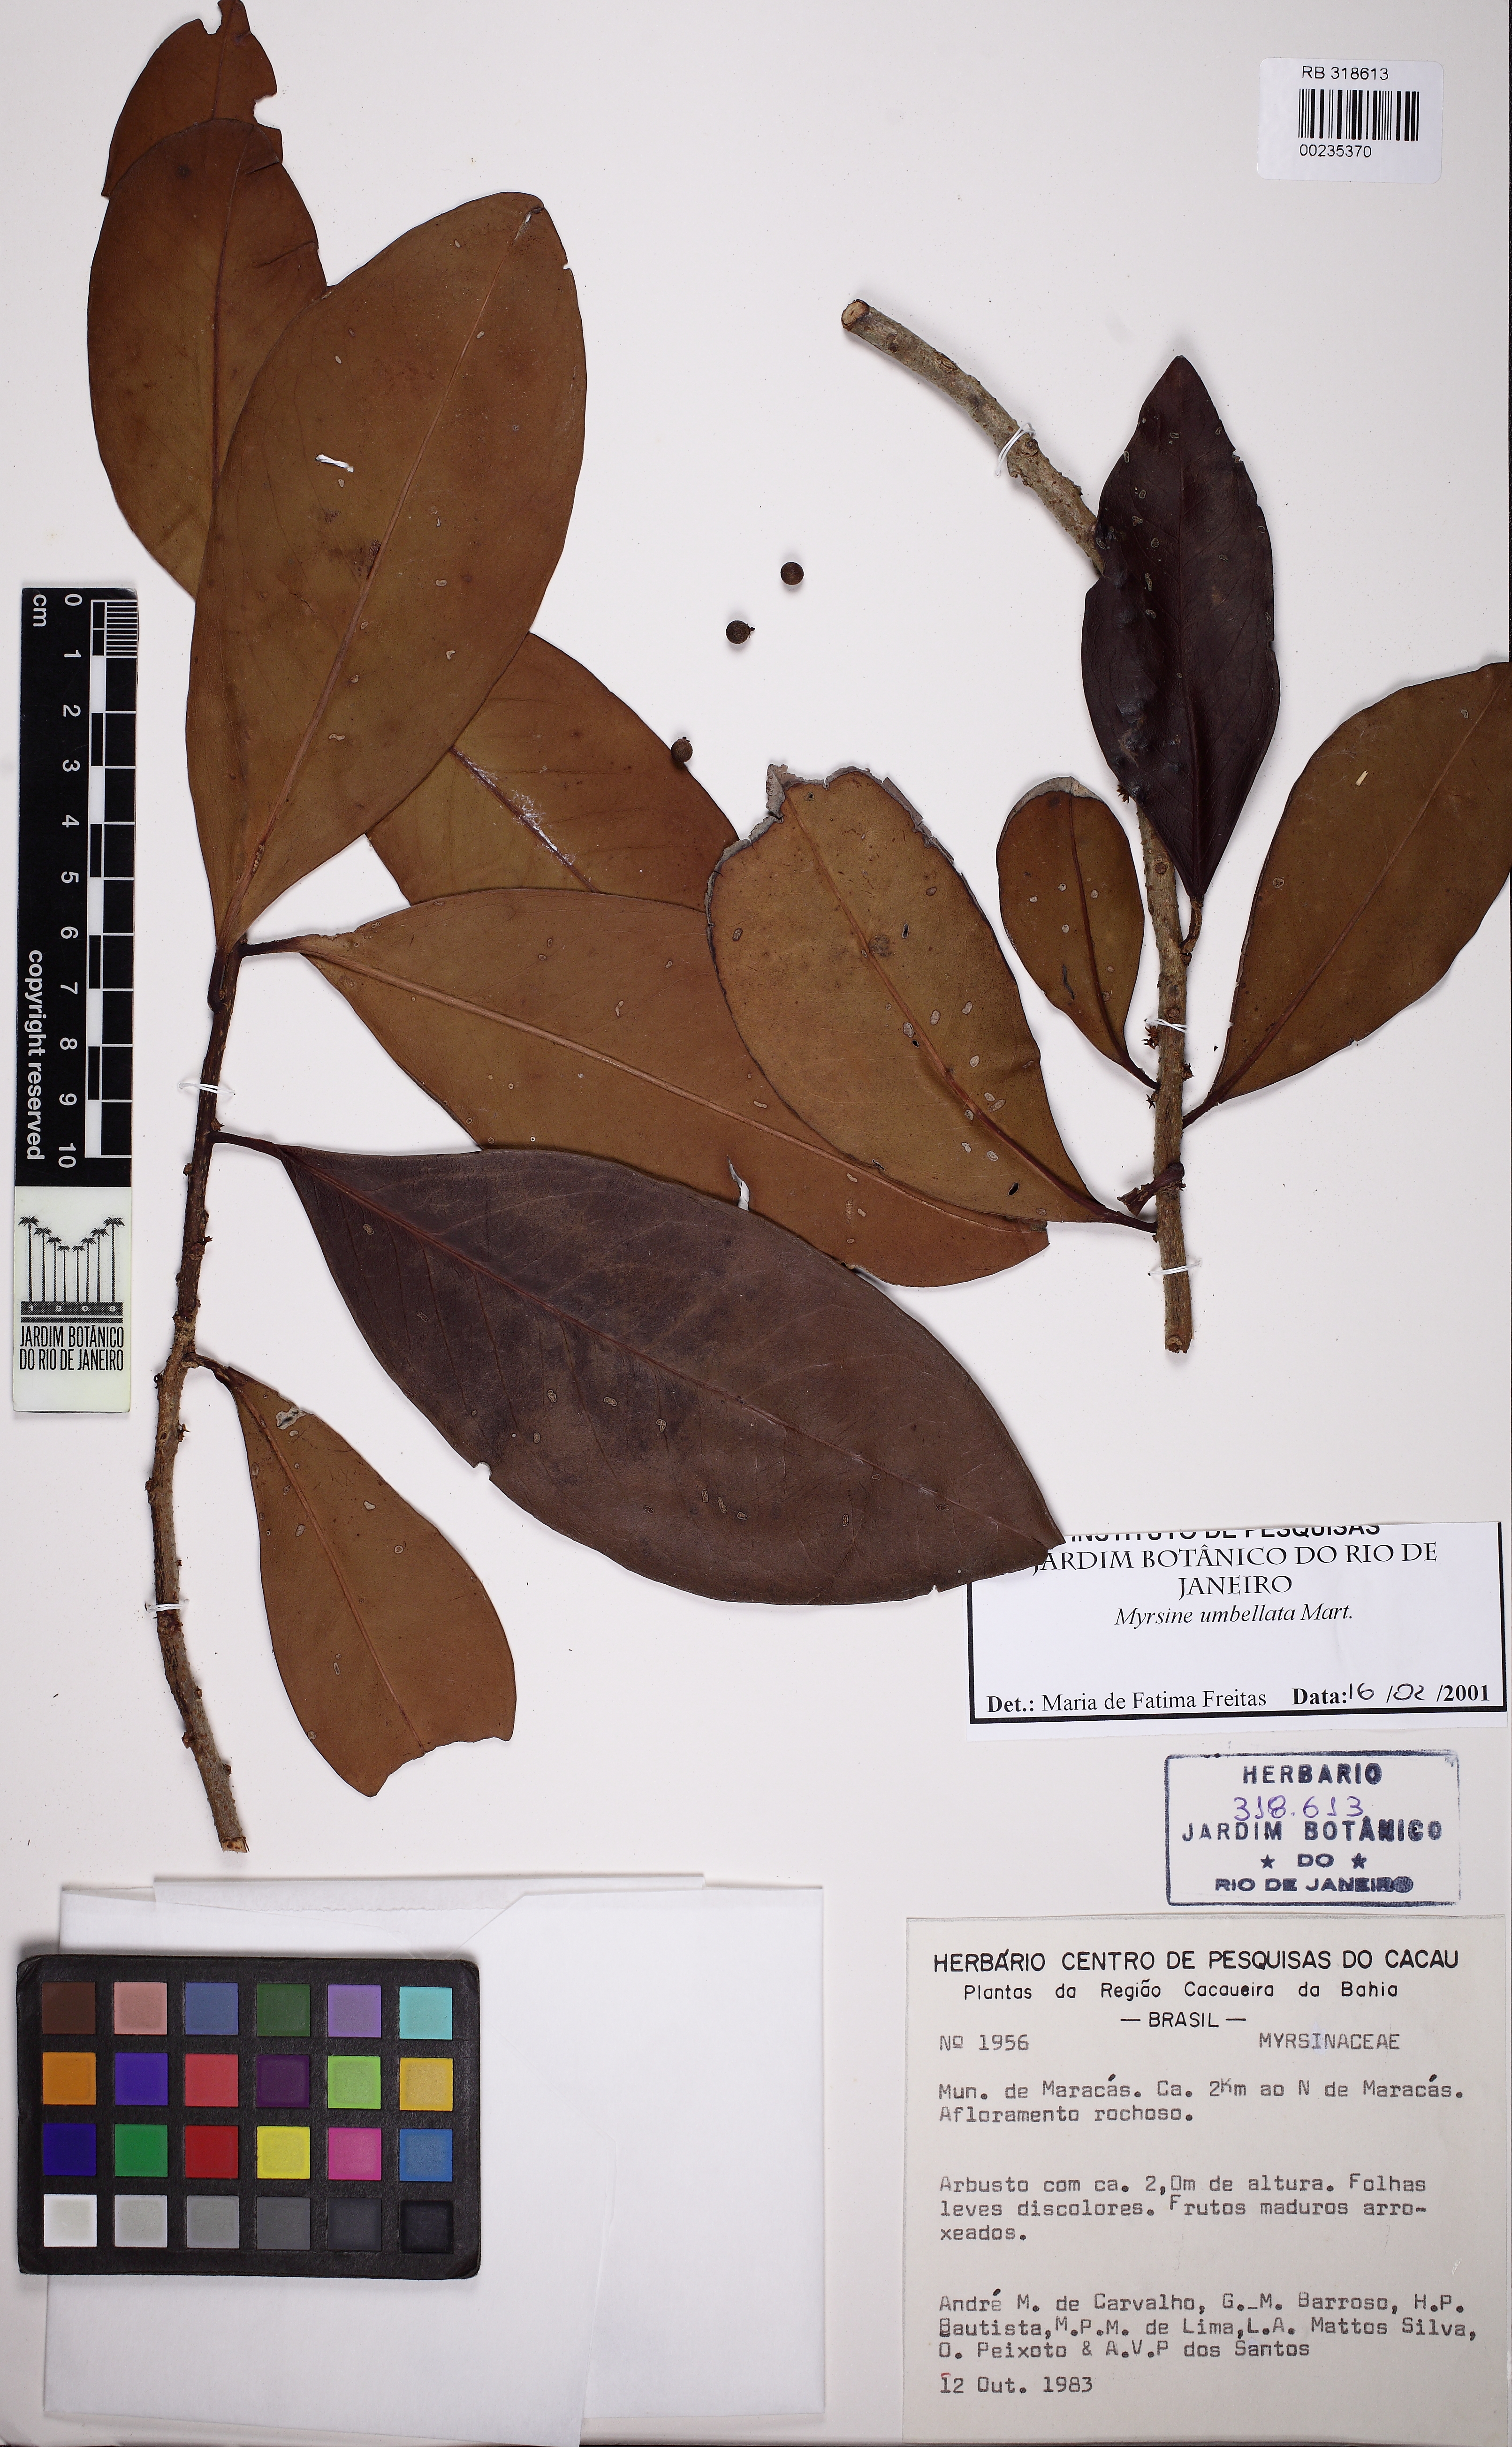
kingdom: Plantae
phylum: Tracheophyta
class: Magnoliopsida
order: Ericales
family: Primulaceae
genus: Myrsine
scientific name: Myrsine umbellata
